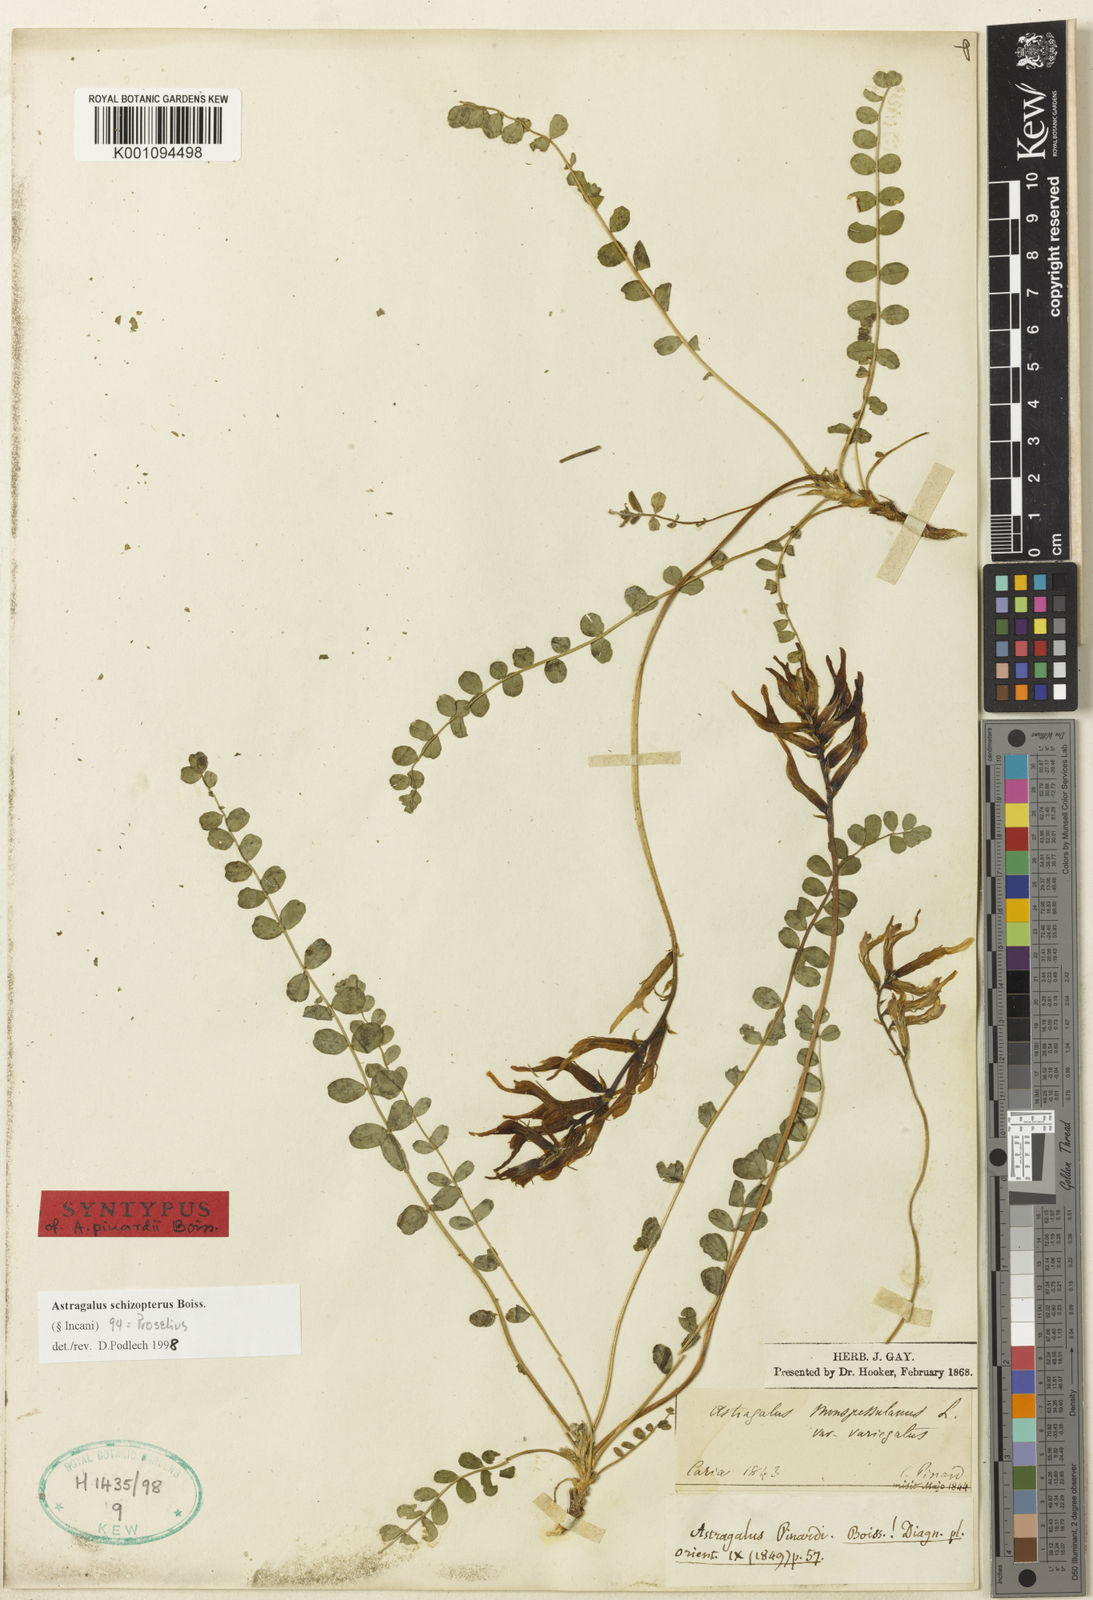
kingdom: Plantae
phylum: Tracheophyta
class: Magnoliopsida
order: Fabales
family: Fabaceae
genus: Astragalus
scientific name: Astragalus
